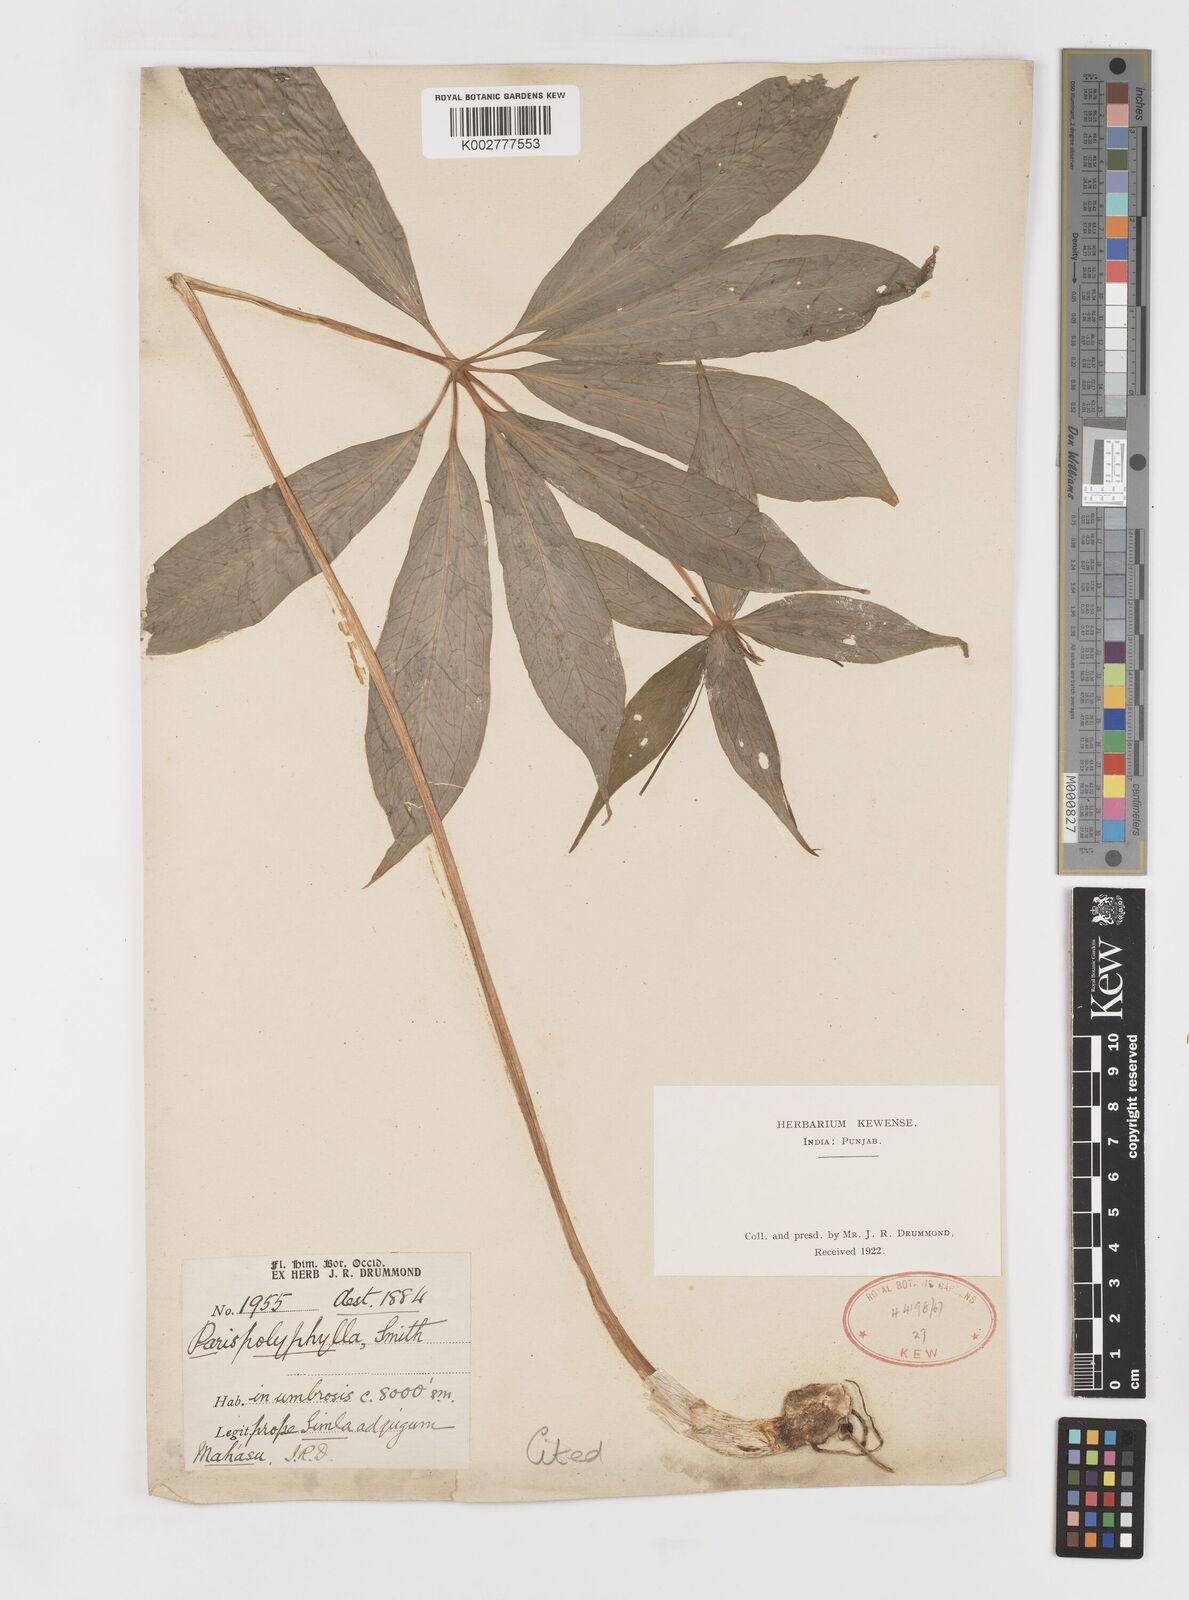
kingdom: Plantae
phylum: Tracheophyta
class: Liliopsida
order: Liliales
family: Melanthiaceae
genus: Paris
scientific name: Paris polyphylla
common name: Love apple
